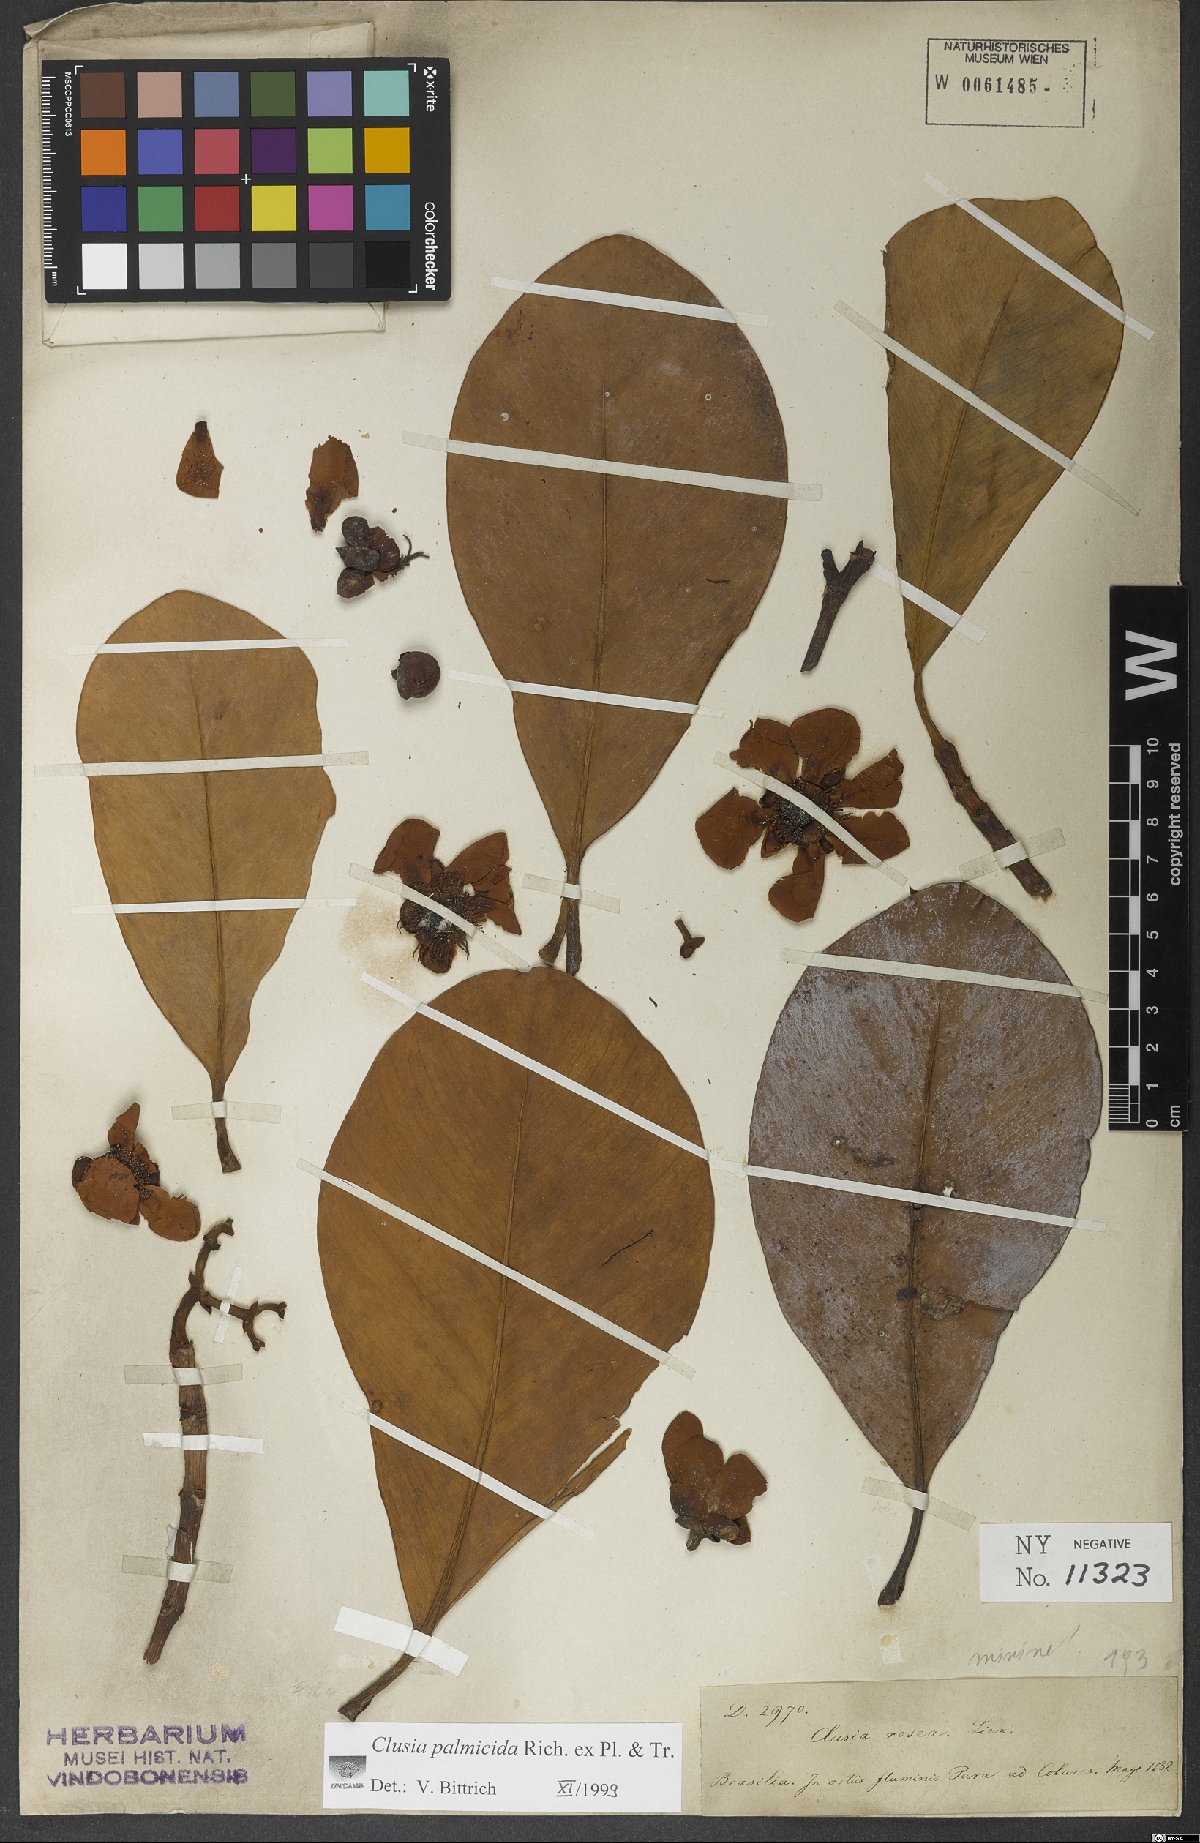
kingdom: Plantae
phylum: Tracheophyta
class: Magnoliopsida
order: Malpighiales
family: Clusiaceae
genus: Clusia
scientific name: Clusia palmicida
